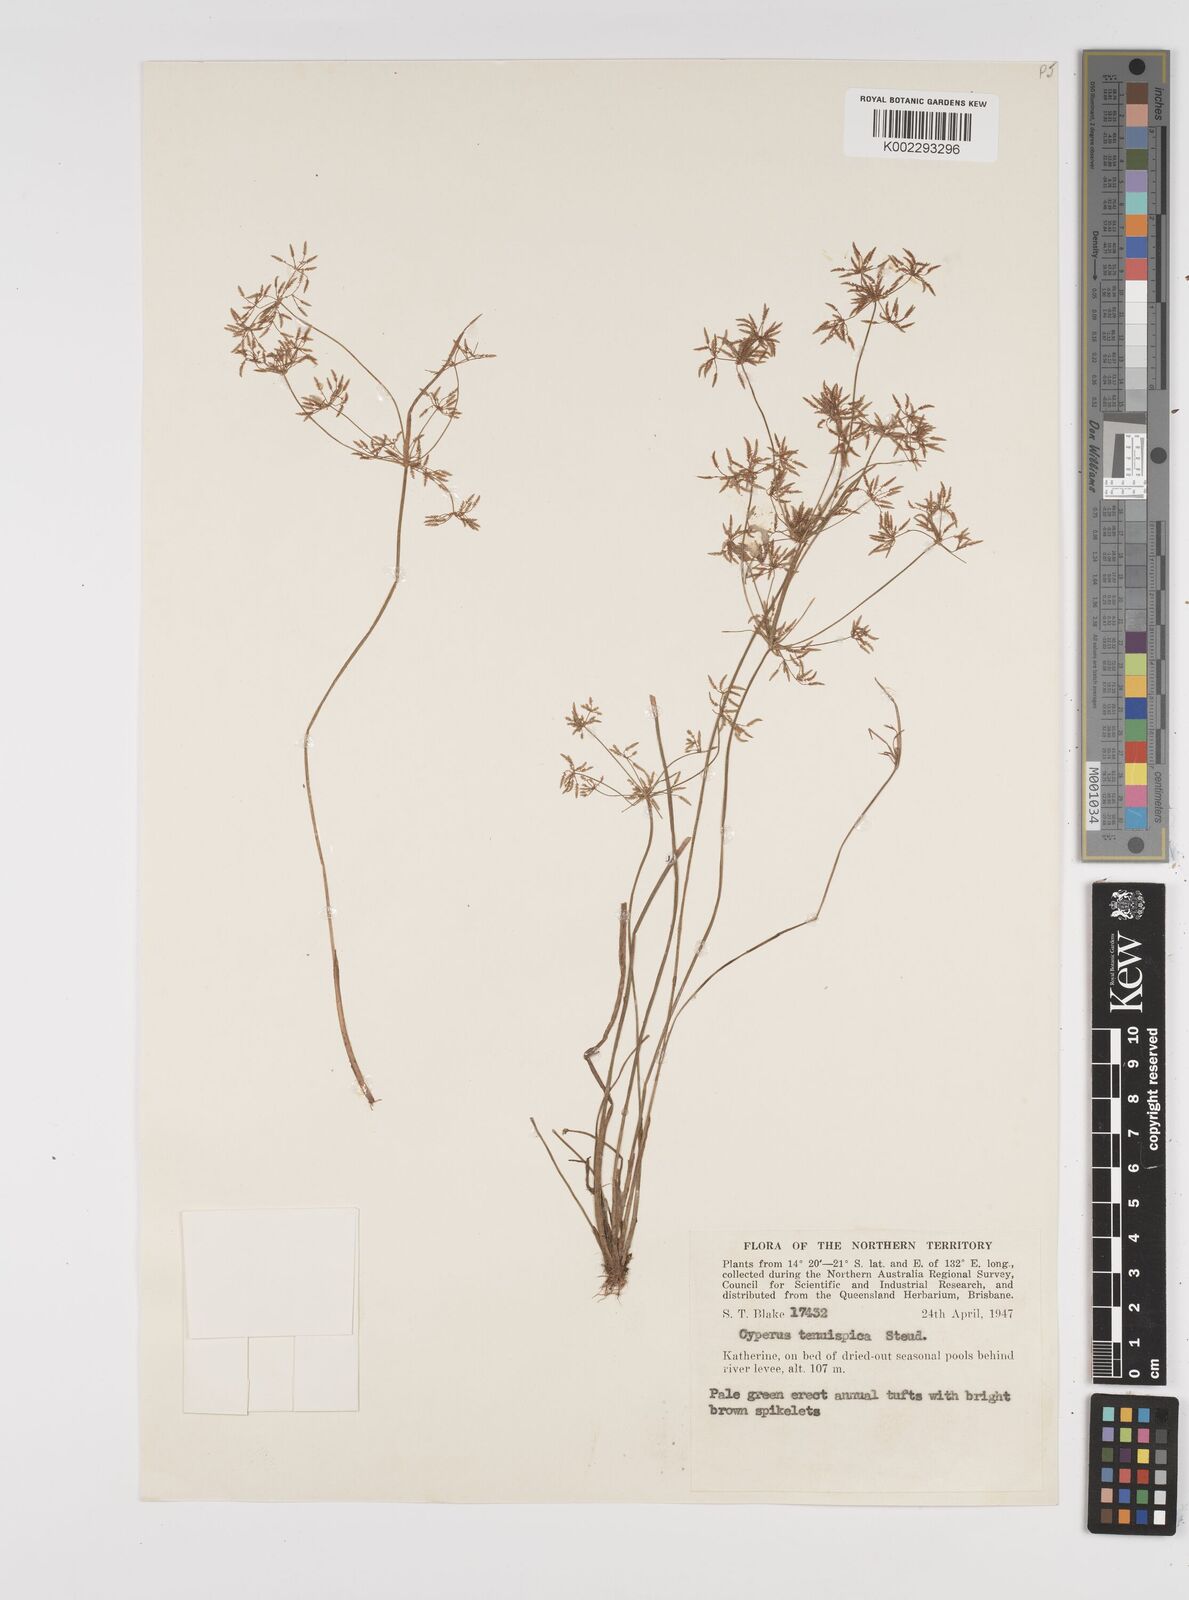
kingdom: Plantae
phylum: Tracheophyta
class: Liliopsida
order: Poales
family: Cyperaceae
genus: Cyperus
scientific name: Cyperus tenuispica
